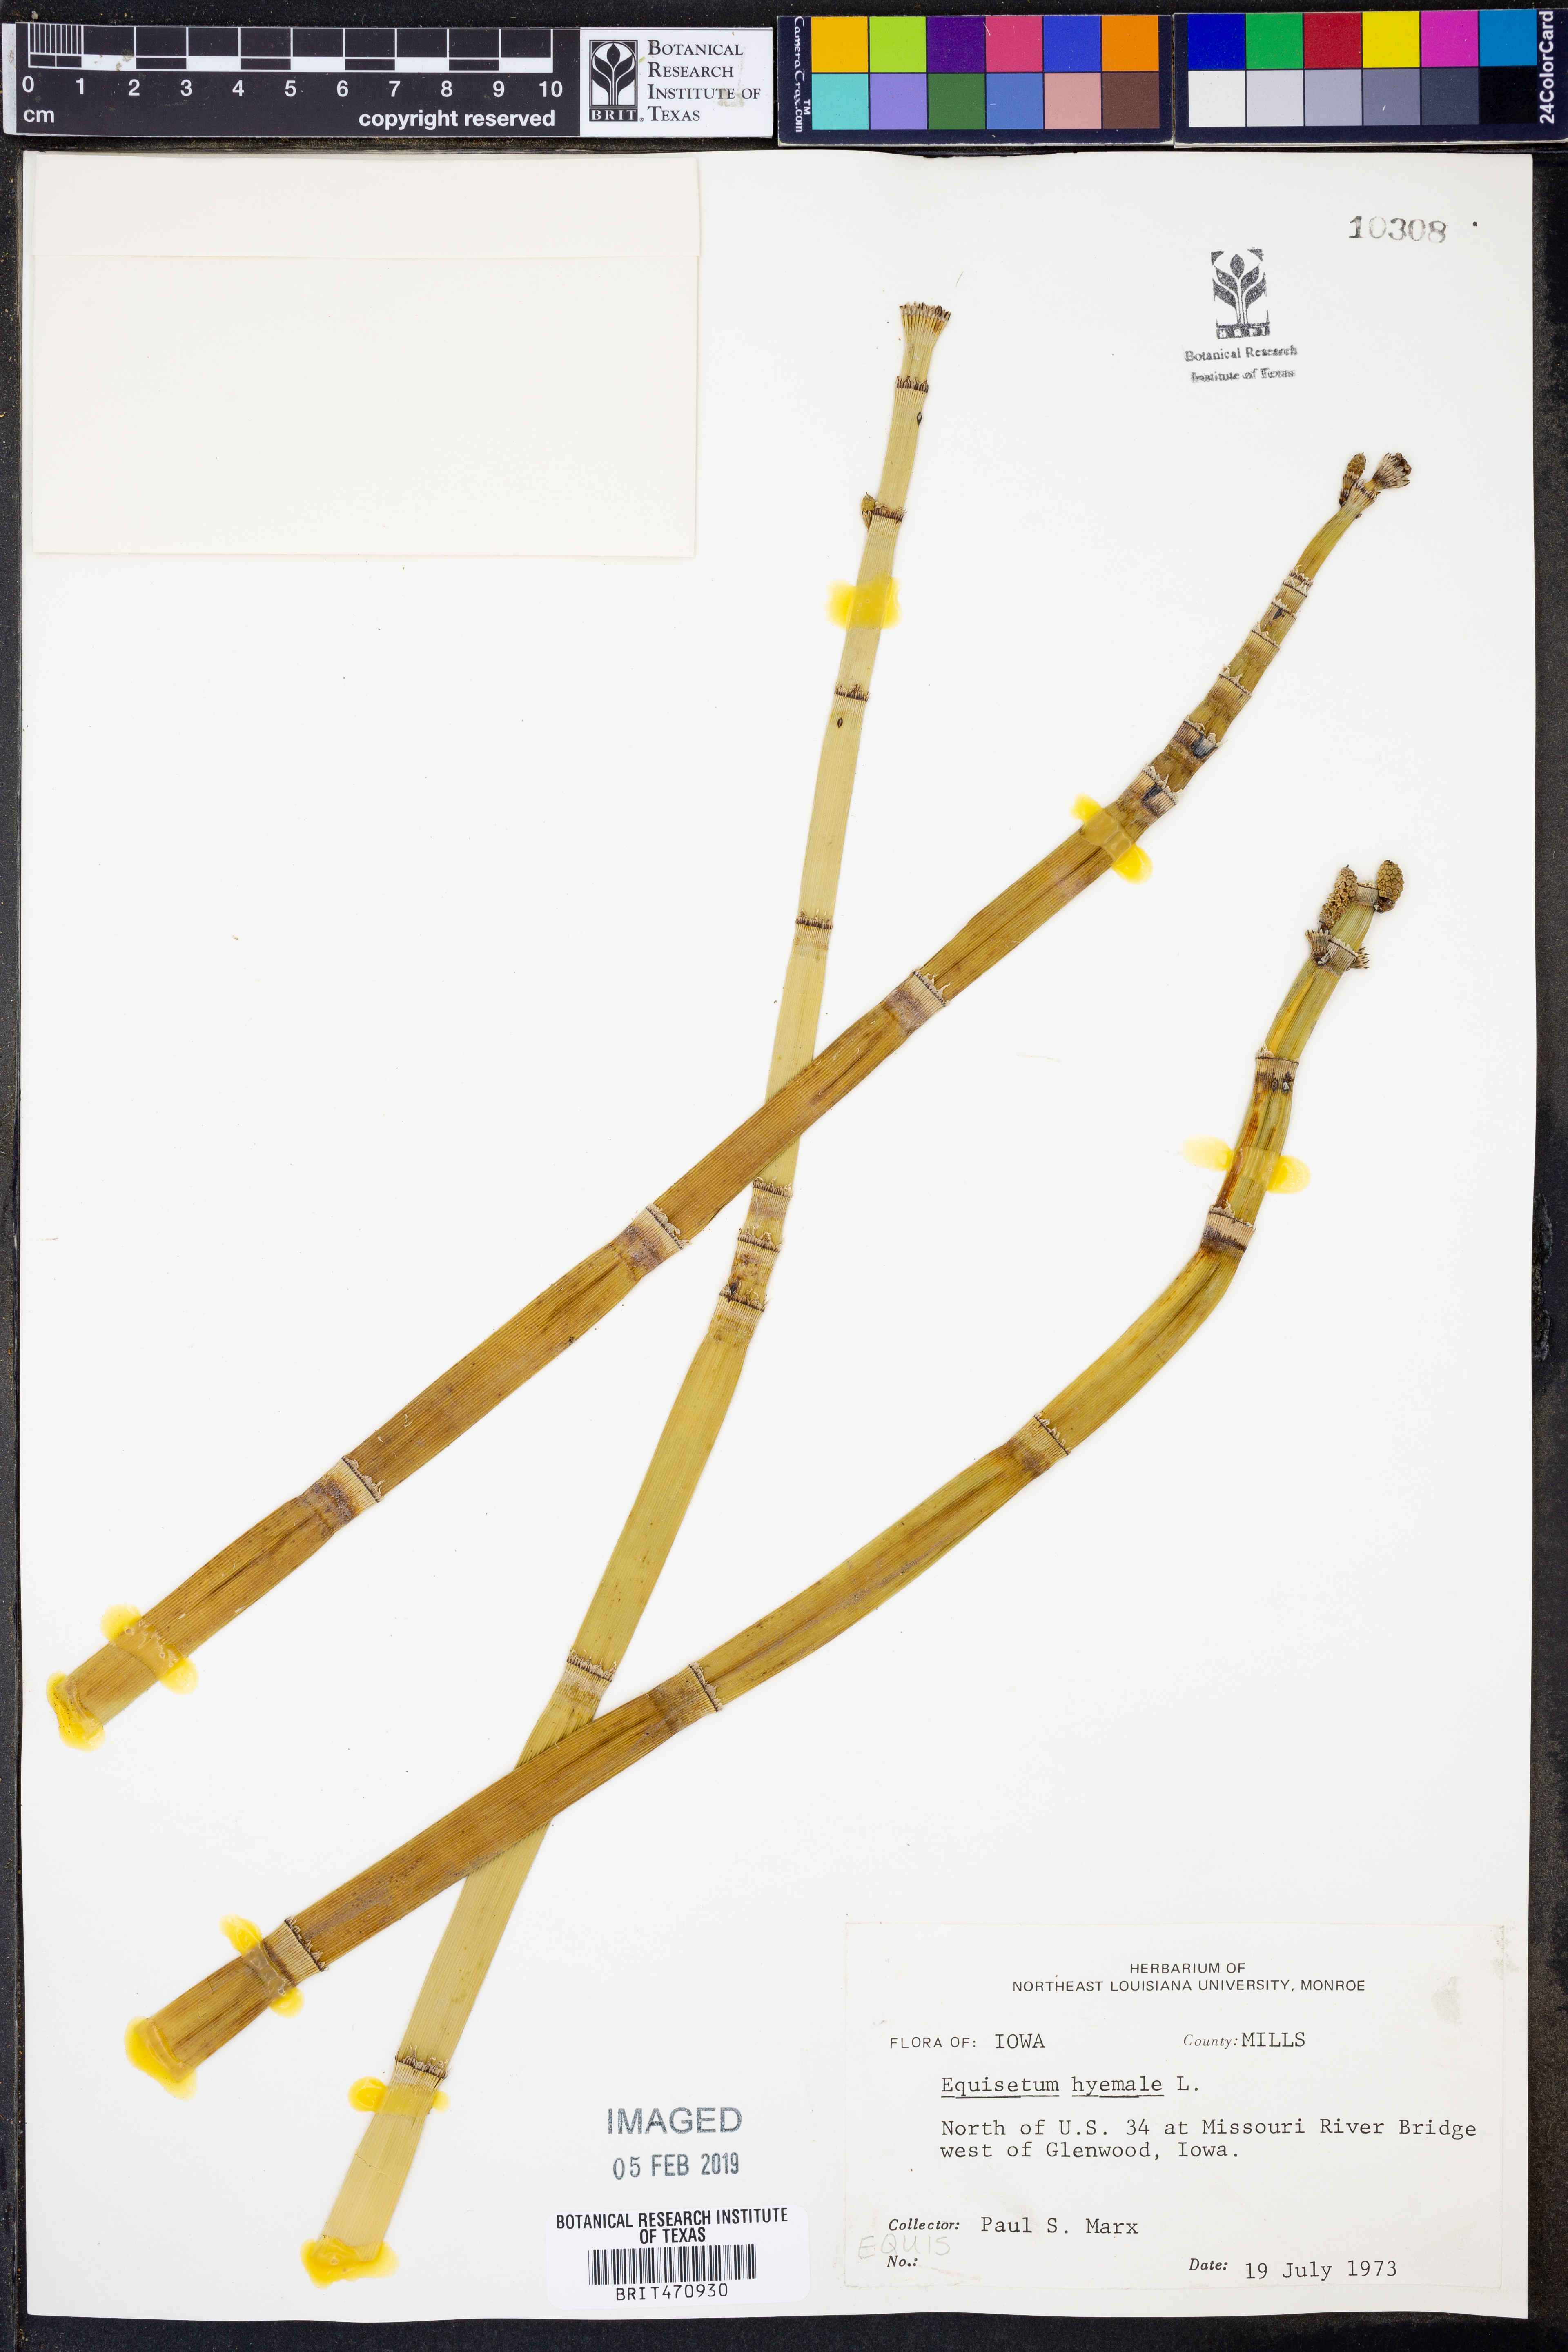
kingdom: Plantae
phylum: Tracheophyta
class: Polypodiopsida
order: Equisetales
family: Equisetaceae
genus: Equisetum
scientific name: Equisetum hyemale
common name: Rough horsetail
